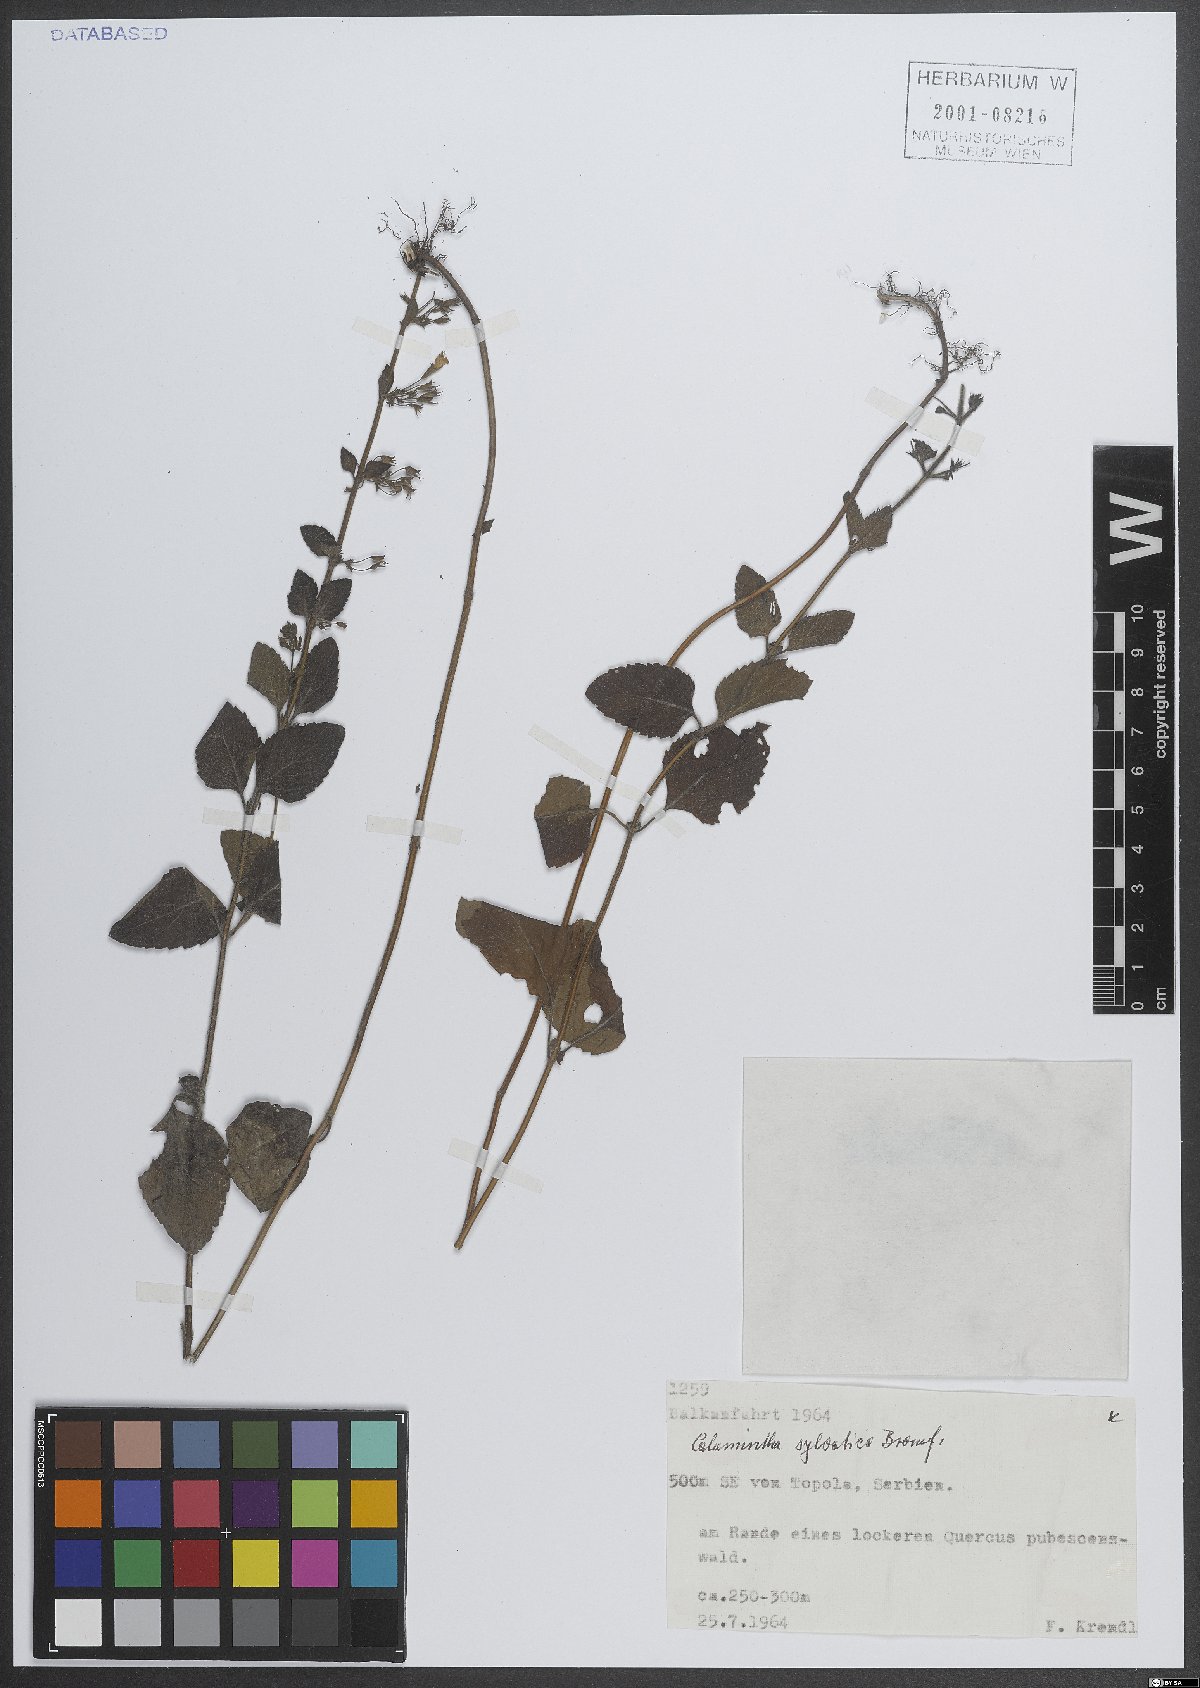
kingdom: Plantae
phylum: Tracheophyta
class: Magnoliopsida
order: Lamiales
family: Lamiaceae
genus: Clinopodium
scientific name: Clinopodium menthifolium
